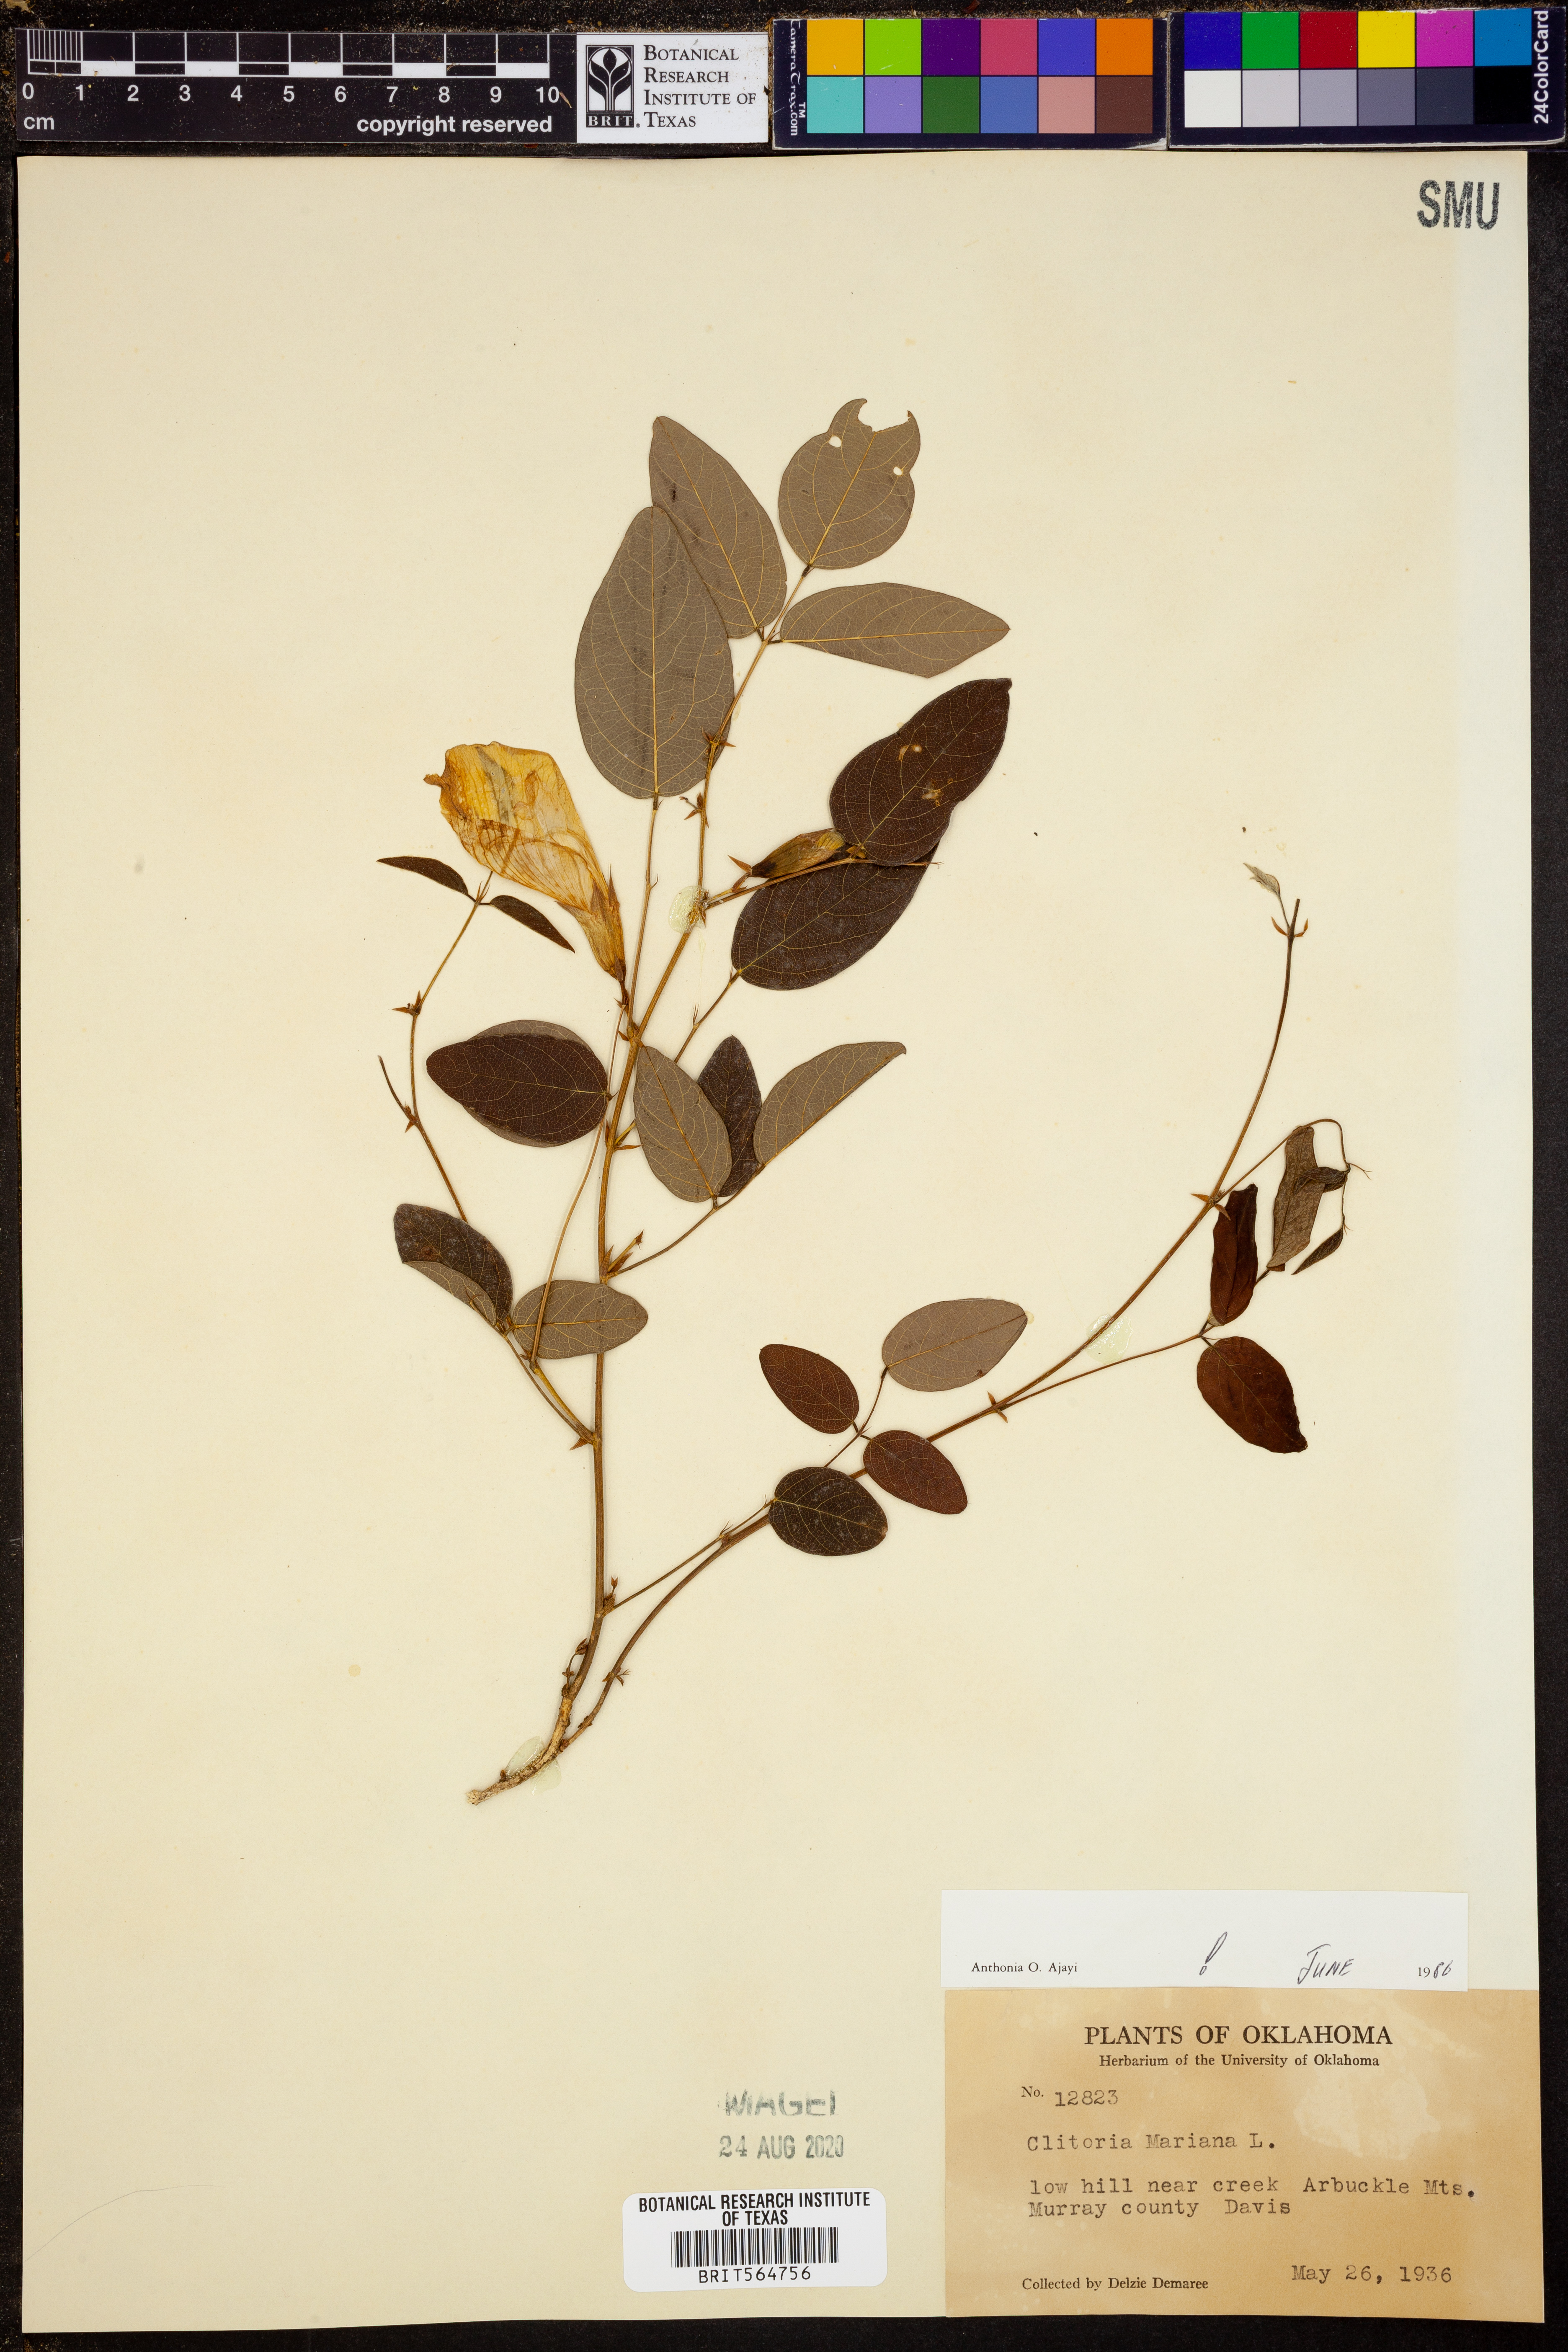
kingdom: Plantae
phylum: Tracheophyta
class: Magnoliopsida
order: Fabales
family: Fabaceae
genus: Clitoria
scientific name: Clitoria mariana
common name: Butterfly-pea
